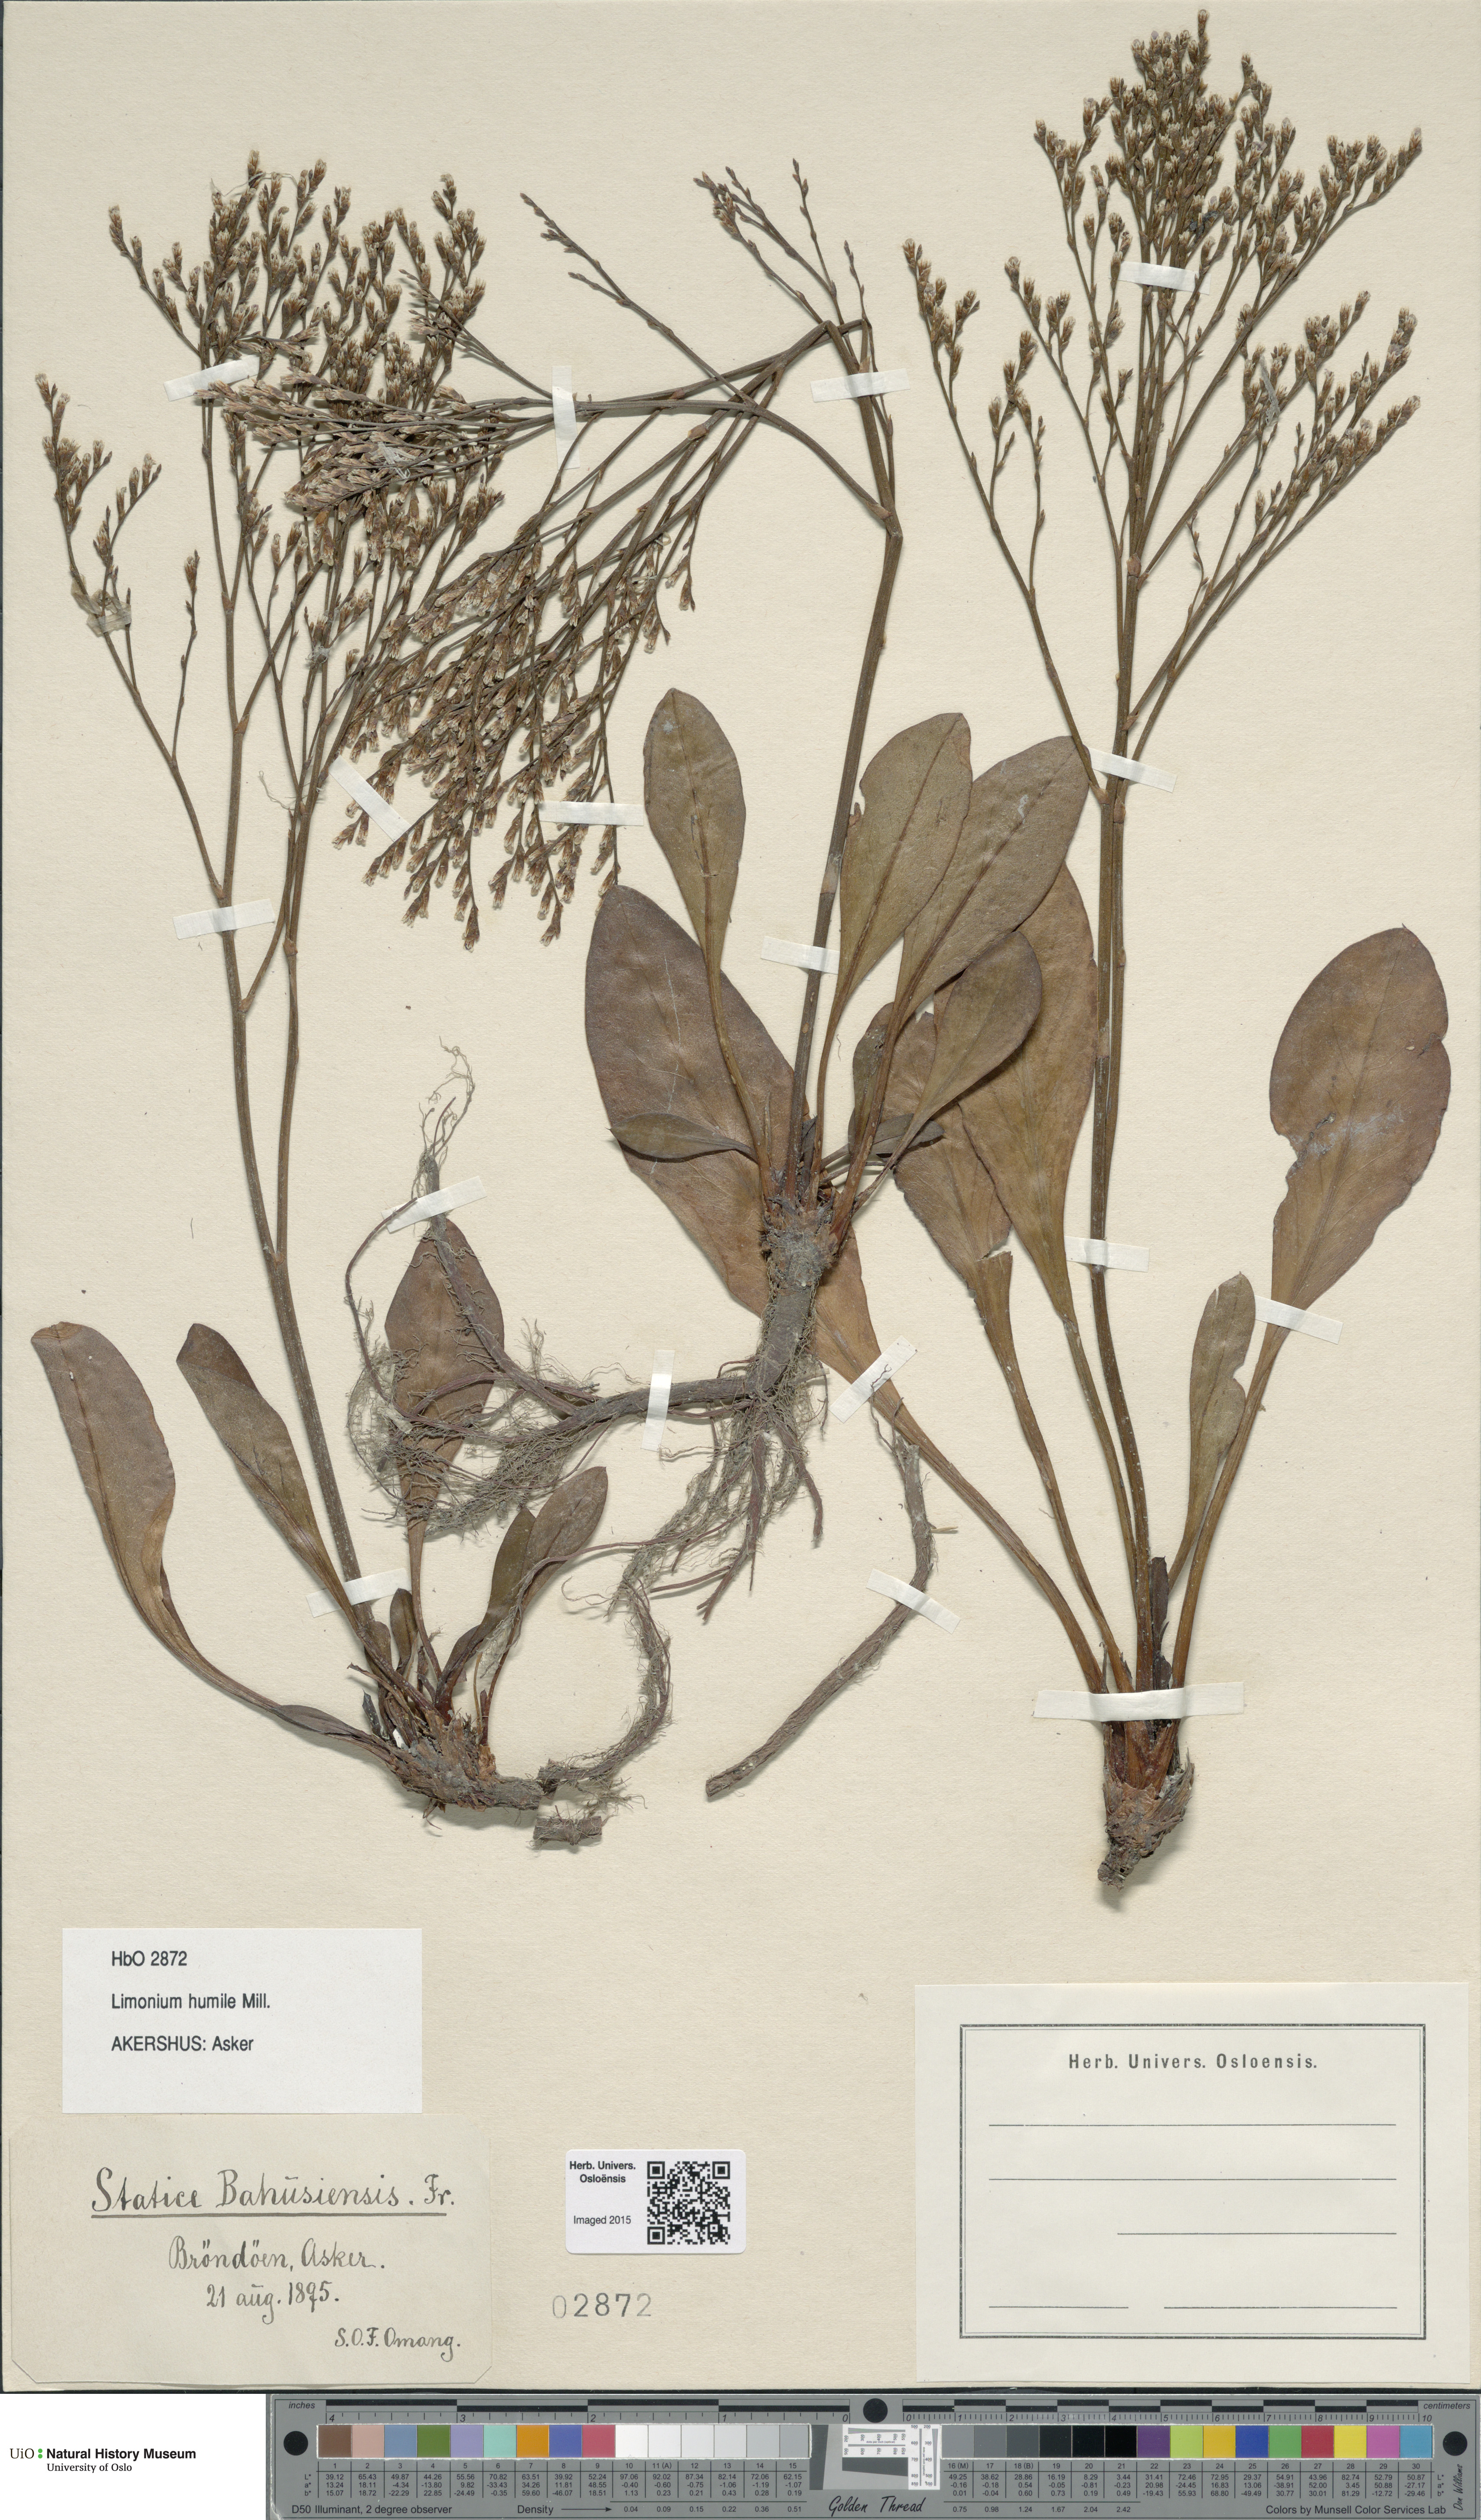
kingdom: Plantae
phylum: Tracheophyta
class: Magnoliopsida
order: Caryophyllales
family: Plumbaginaceae
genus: Limonium
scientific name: Limonium humile
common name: Lax-flowered sea-lavender
